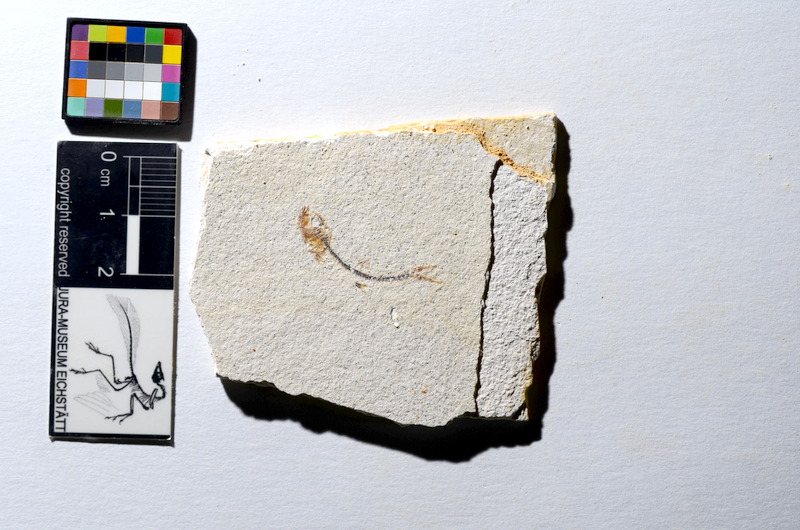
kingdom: Animalia
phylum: Chordata
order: Salmoniformes
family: Orthogonikleithridae
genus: Orthogonikleithrus
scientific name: Orthogonikleithrus hoelli
